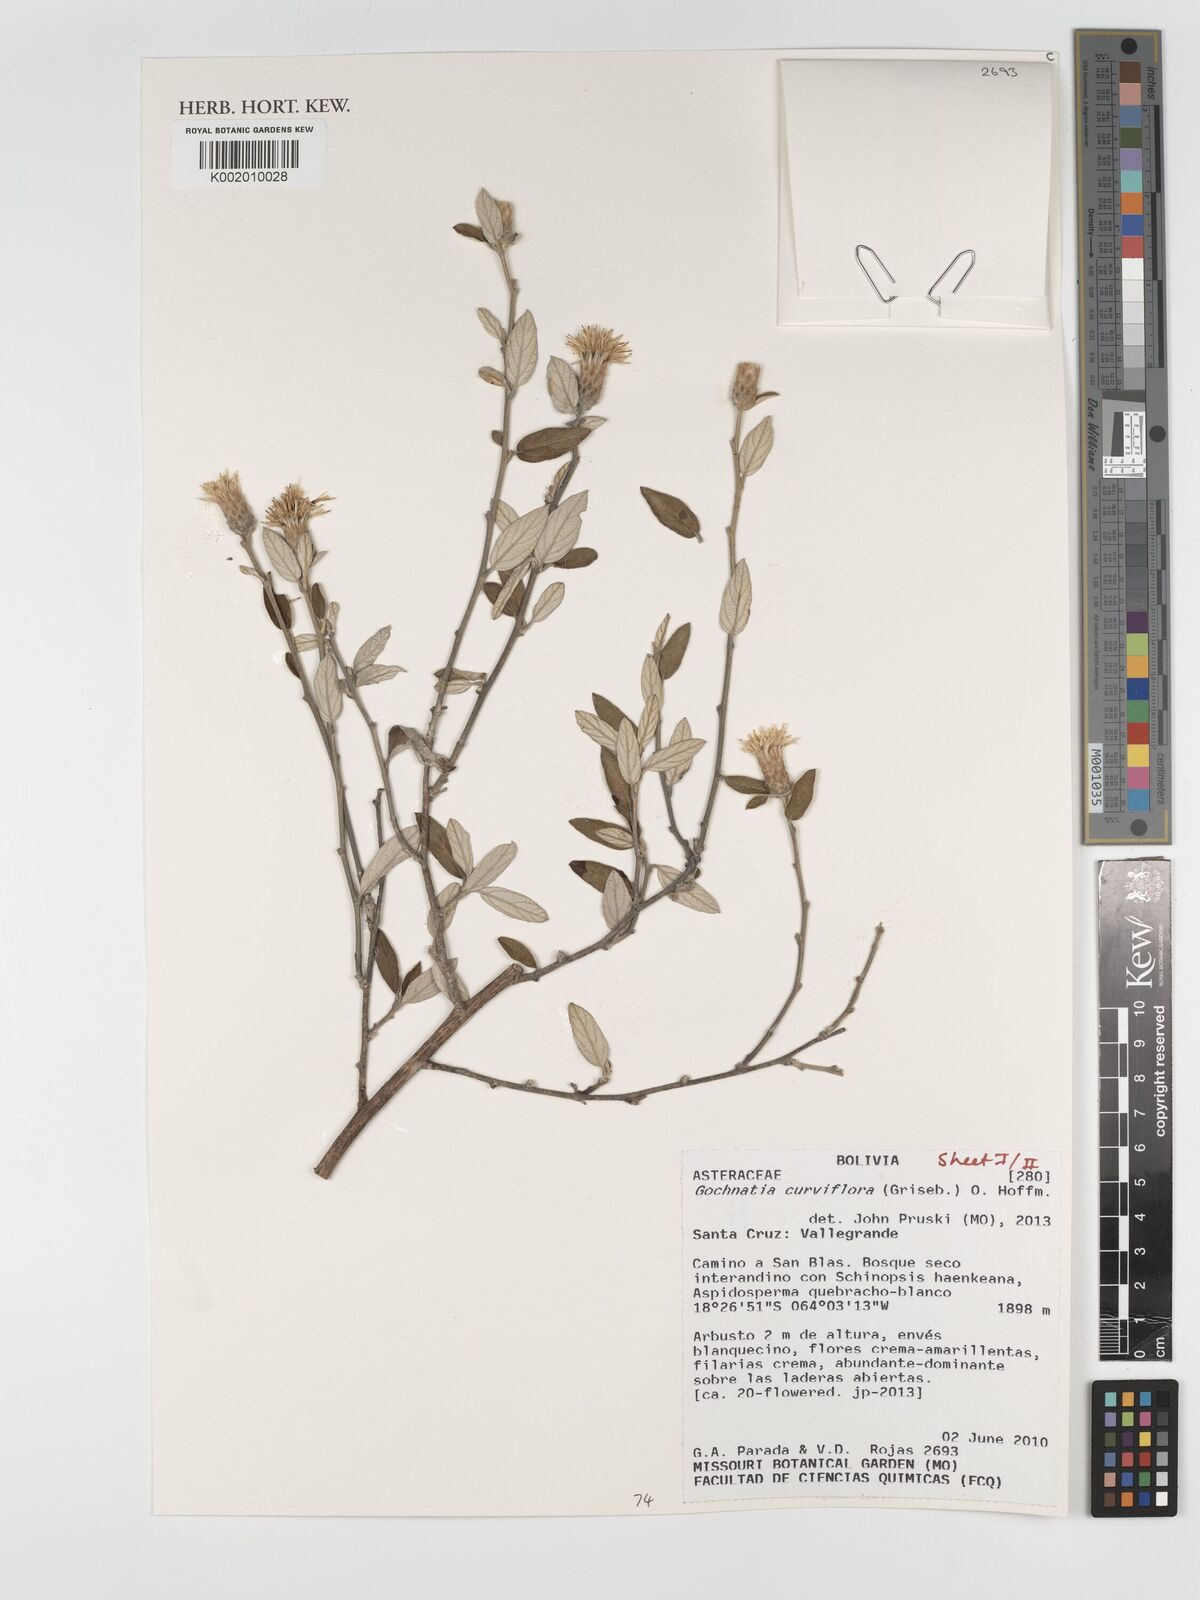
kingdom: Plantae
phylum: Tracheophyta
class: Magnoliopsida
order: Asterales
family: Asteraceae
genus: Gochnatia
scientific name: Gochnatia curviflora
